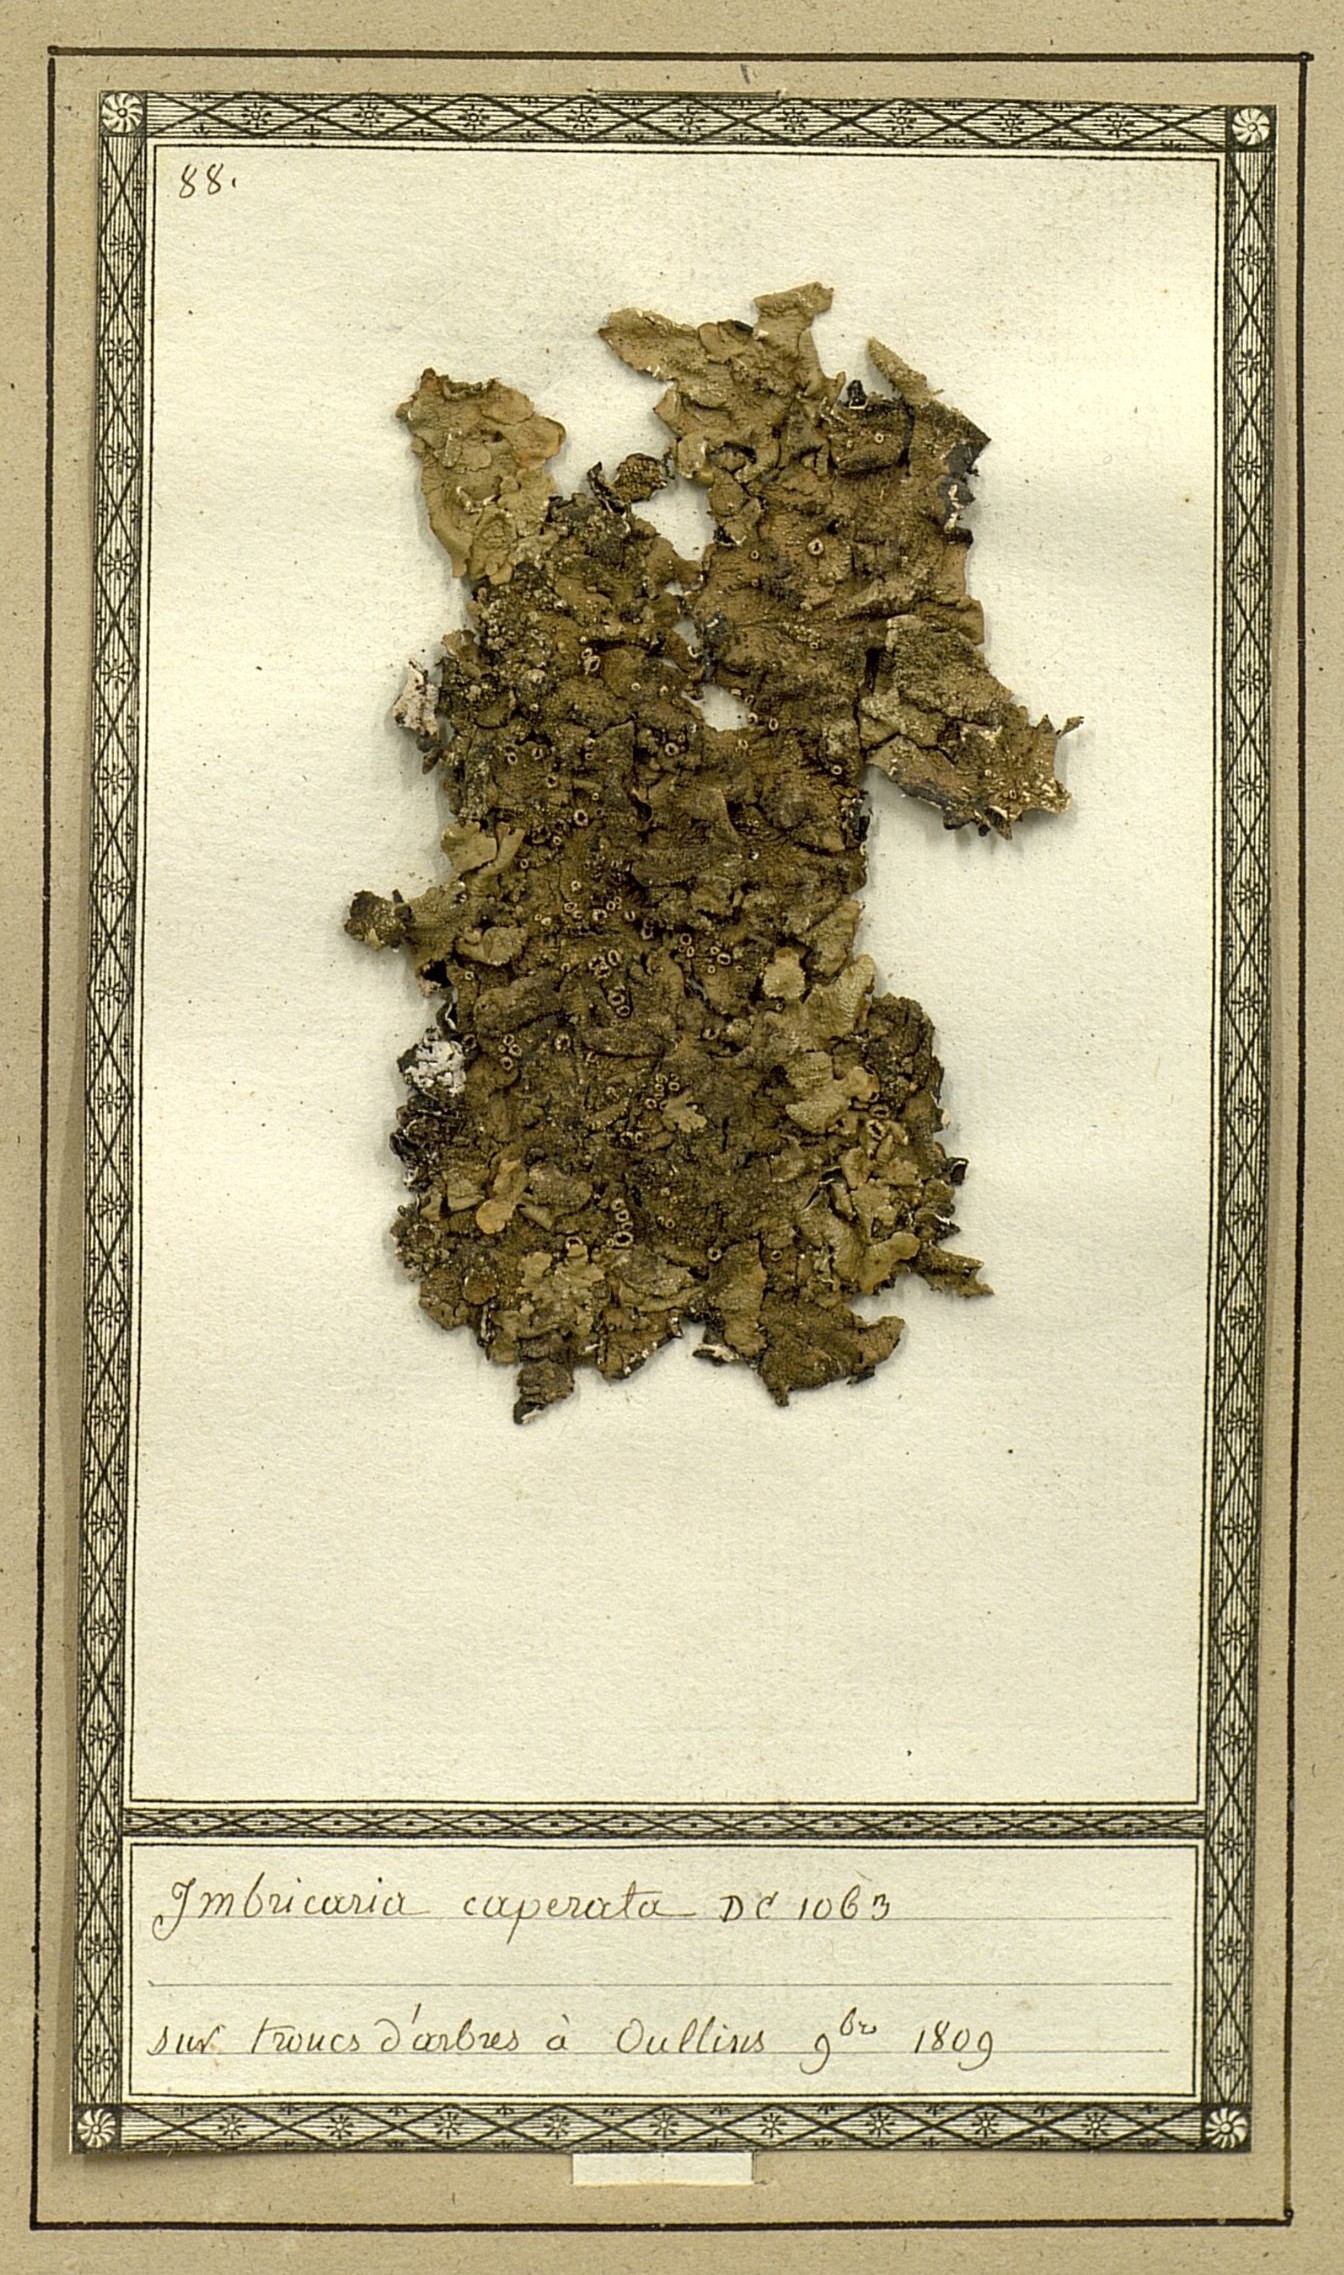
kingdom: Fungi
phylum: Ascomycota
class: Lecanoromycetes
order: Lecanorales
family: Parmeliaceae
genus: Flavoparmelia
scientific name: Flavoparmelia caperata
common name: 40-mile per hour lichen
